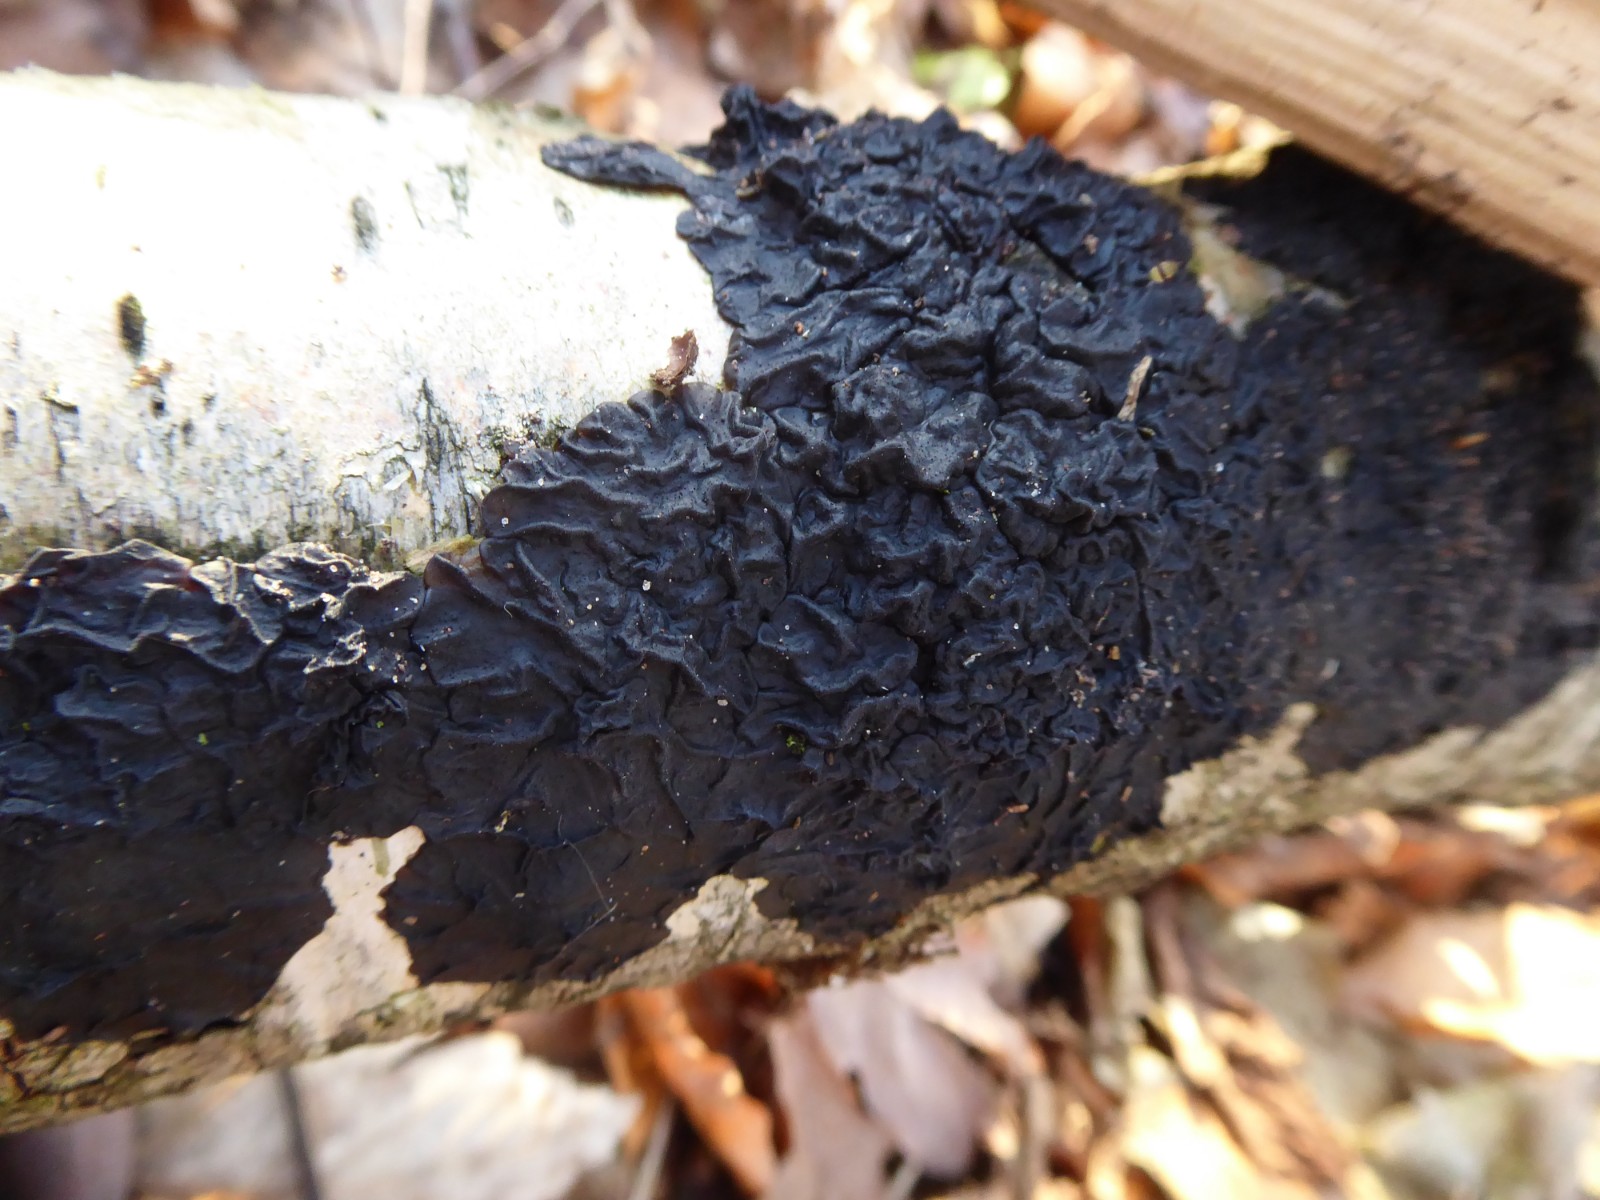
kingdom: Fungi
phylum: Basidiomycota
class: Agaricomycetes
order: Auriculariales
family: Auriculariaceae
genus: Exidia
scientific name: Exidia nigricans
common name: almindelig bævretop
